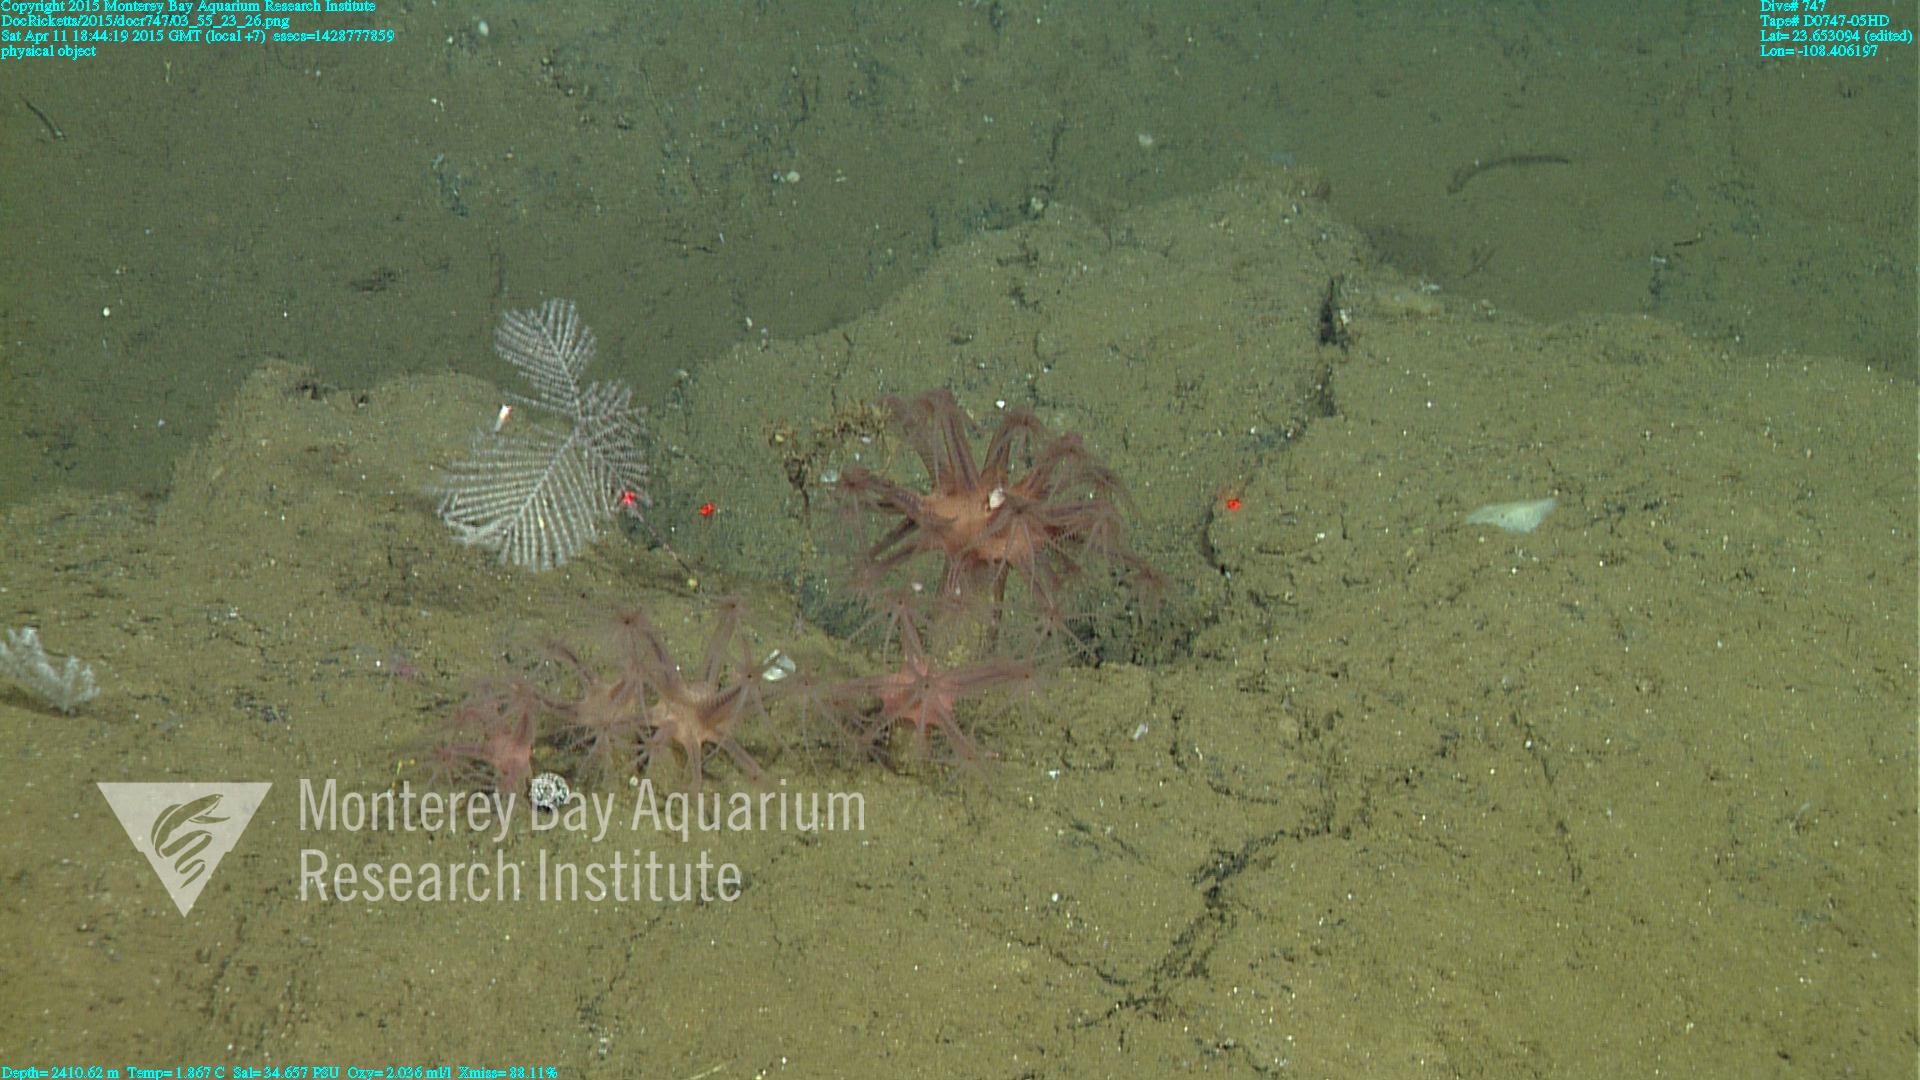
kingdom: Animalia
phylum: Cnidaria
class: Anthozoa
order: Scleralcyonacea
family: Coralliidae
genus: Heteropolypus
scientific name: Heteropolypus ritteri
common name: Ritter's soft coral
